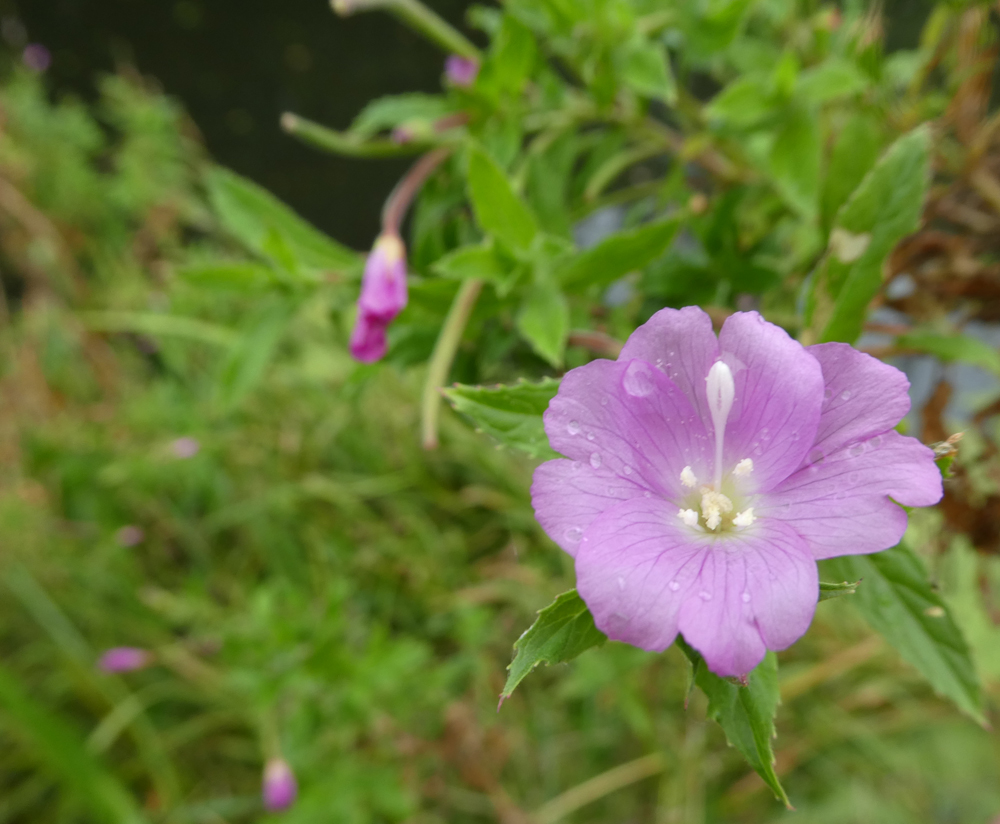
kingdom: Plantae
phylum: Tracheophyta
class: Magnoliopsida
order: Myrtales
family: Onagraceae
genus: Epilobium
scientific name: Epilobium hirsutum
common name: Great willowherb
